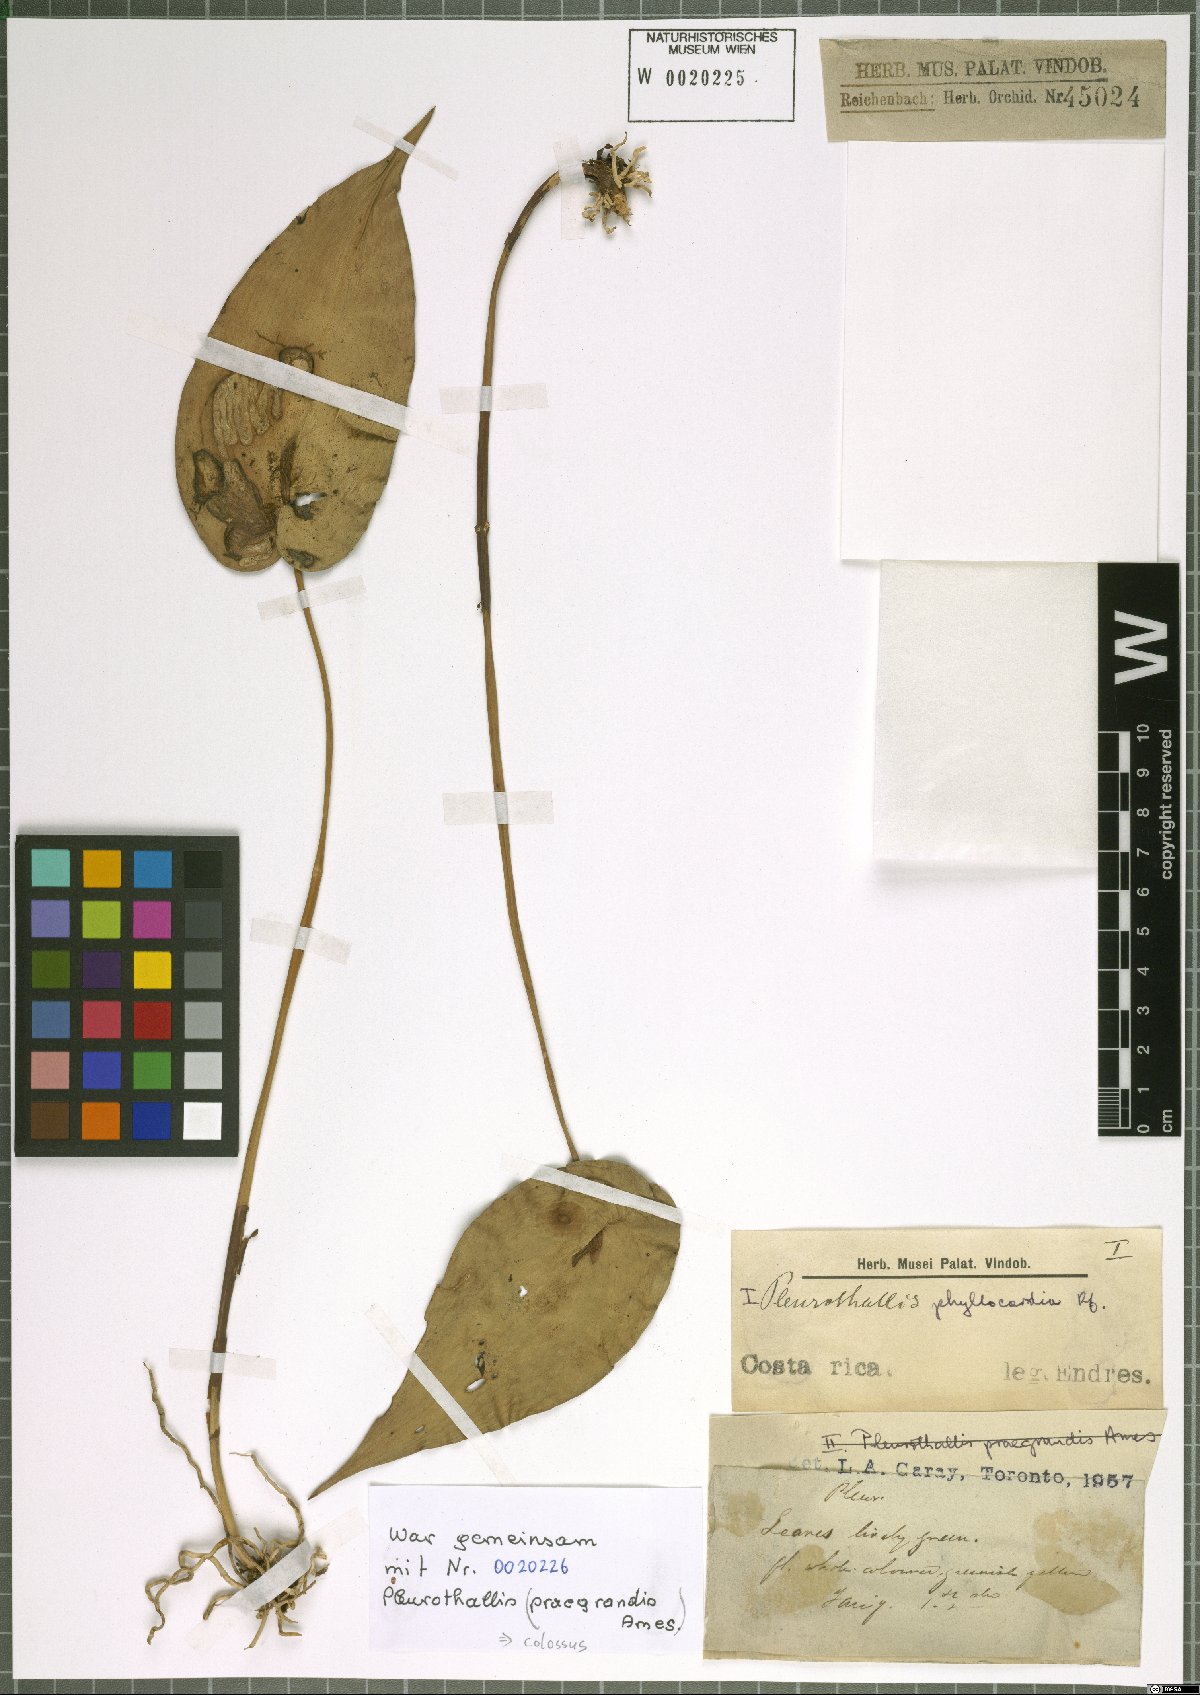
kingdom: Plantae
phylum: Tracheophyta
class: Liliopsida
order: Asparagales
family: Orchidaceae
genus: Pleurothallis
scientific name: Pleurothallis phyllocardia
